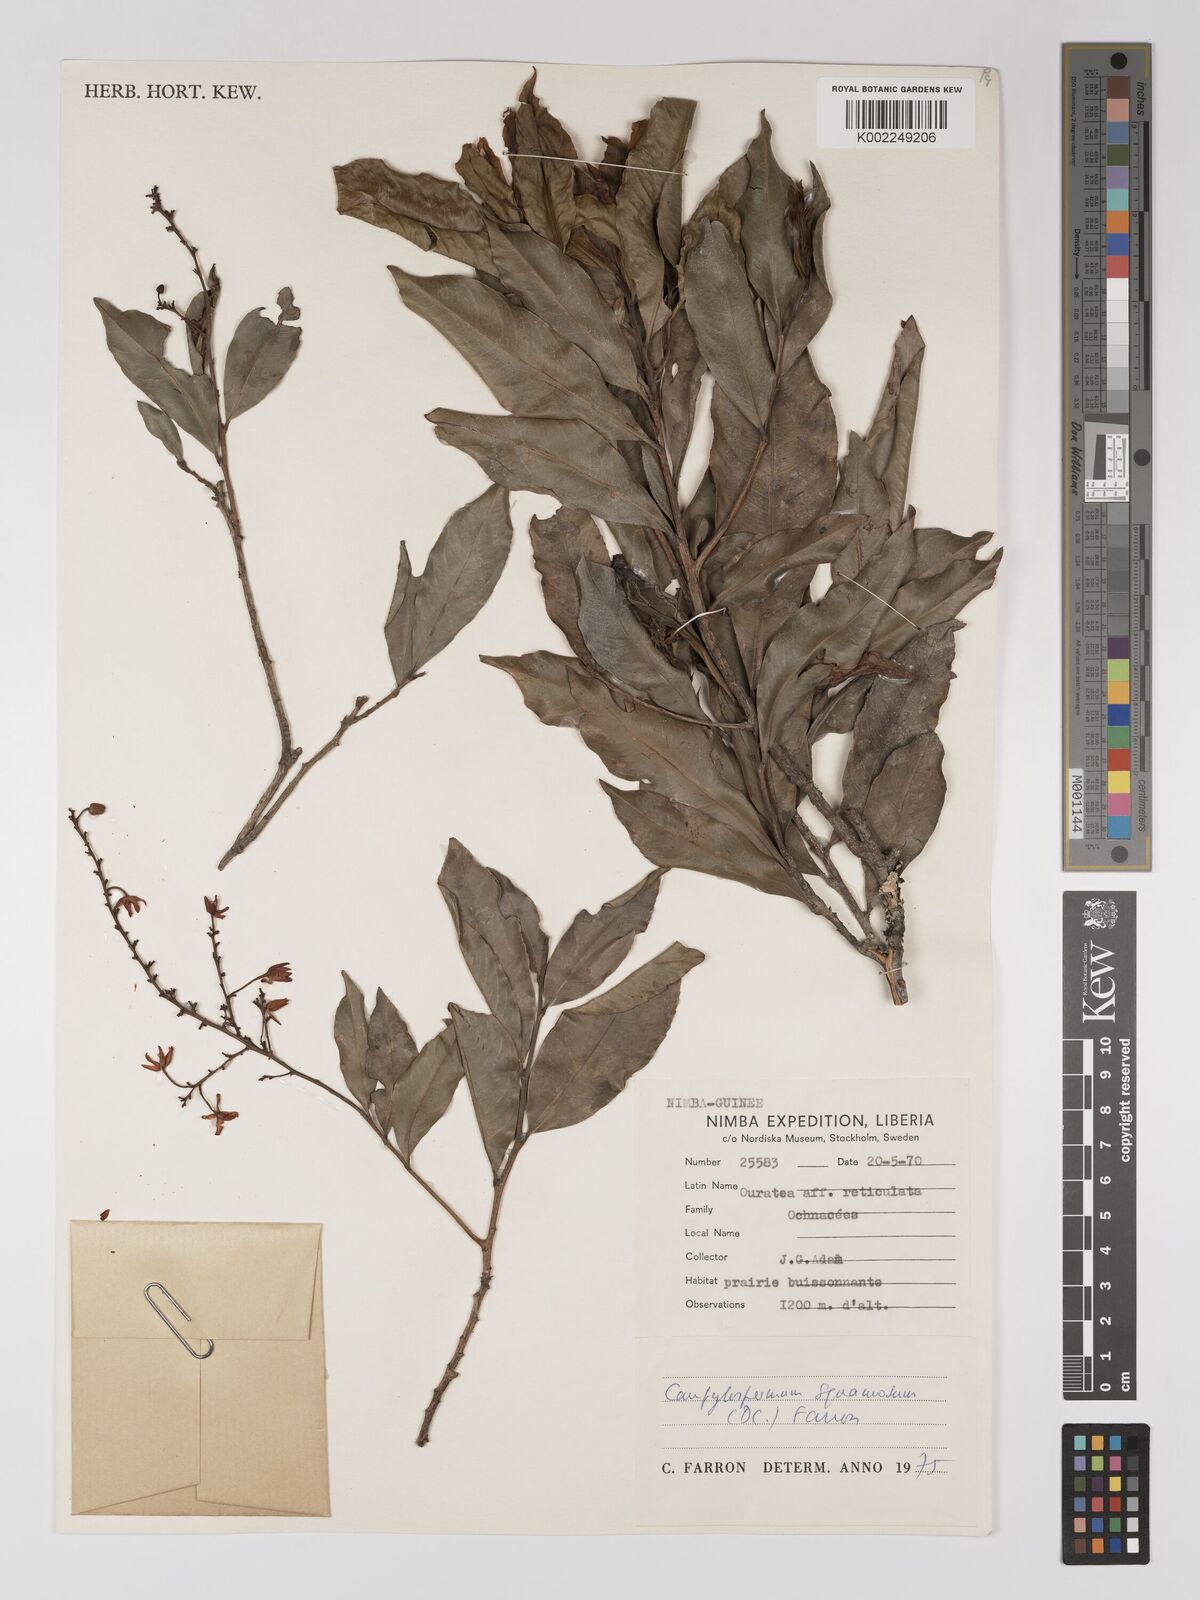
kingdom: Plantae
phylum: Tracheophyta
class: Magnoliopsida
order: Malpighiales
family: Ochnaceae
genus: Campylospermum
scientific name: Campylospermum squamosum
